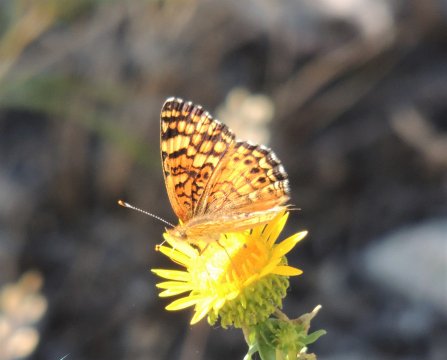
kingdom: Animalia
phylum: Arthropoda
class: Insecta
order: Lepidoptera
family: Nymphalidae
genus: Eresia
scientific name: Eresia aveyrona
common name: Mylitta Crescent
